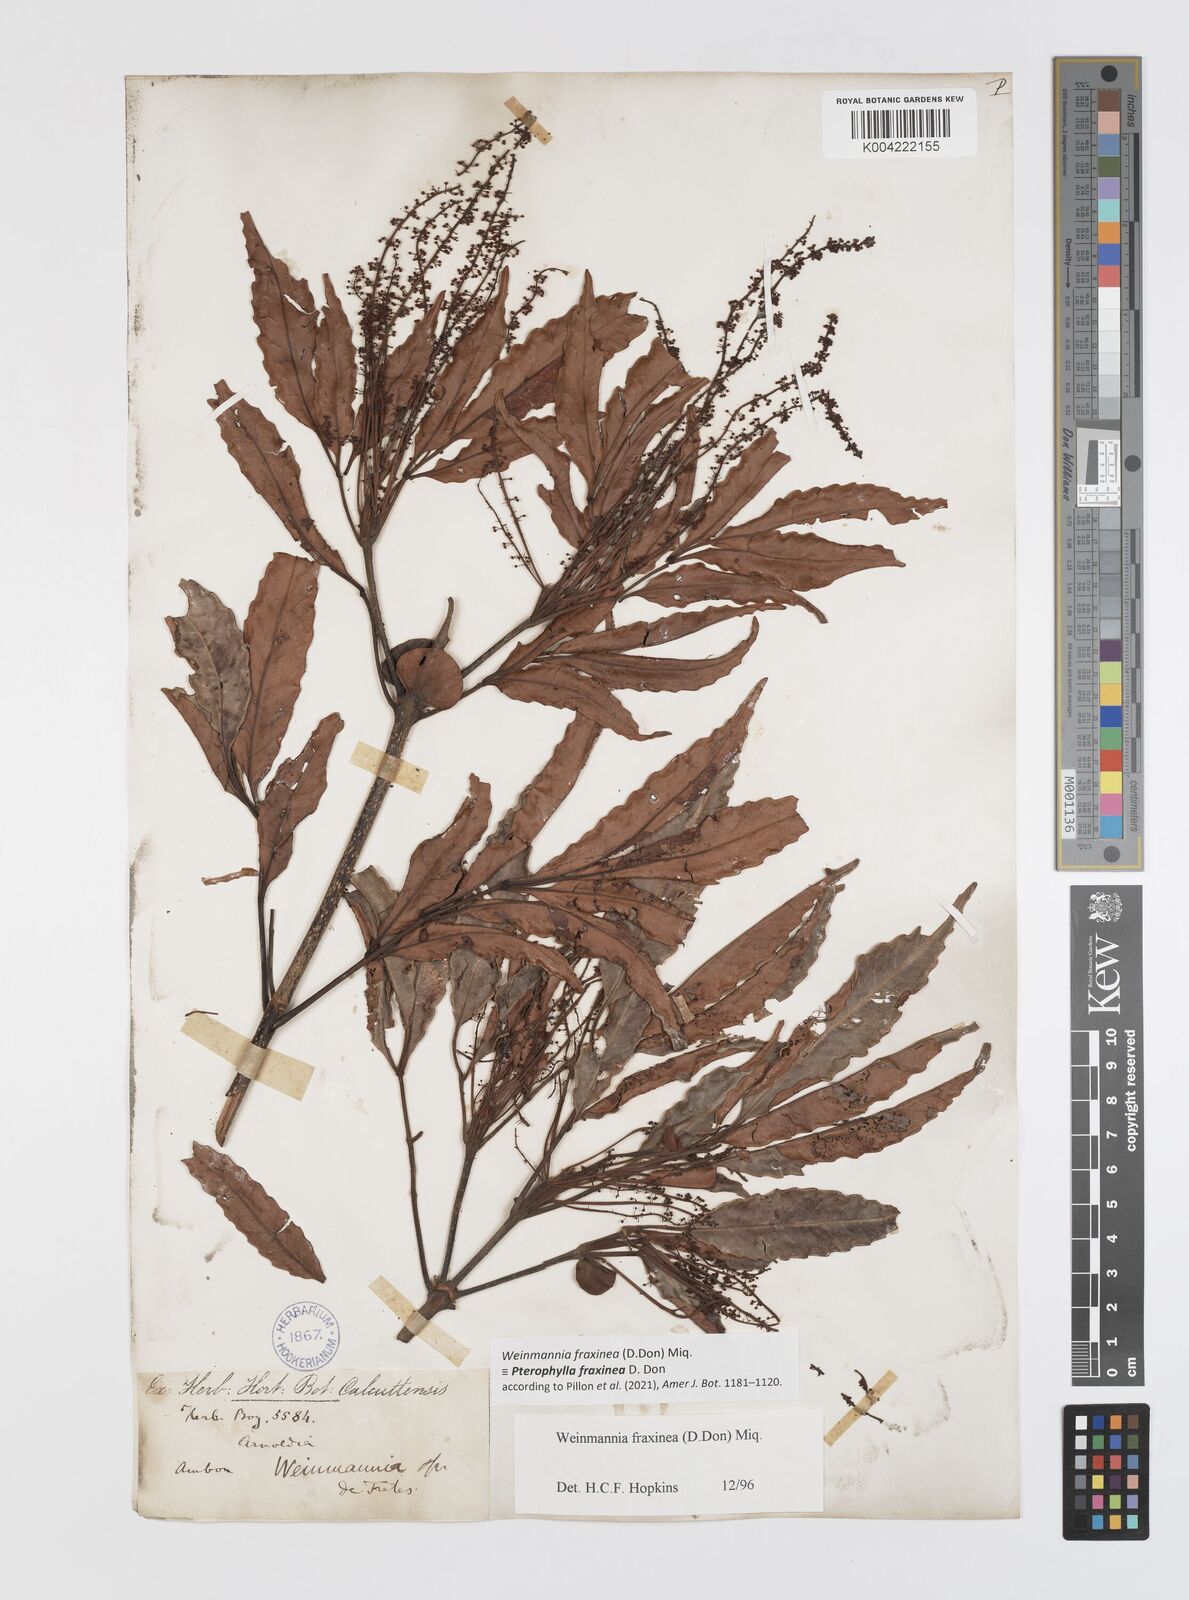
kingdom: Plantae
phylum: Tracheophyta
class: Magnoliopsida
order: Oxalidales
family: Cunoniaceae
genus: Pterophylla
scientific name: Pterophylla fraxinea
